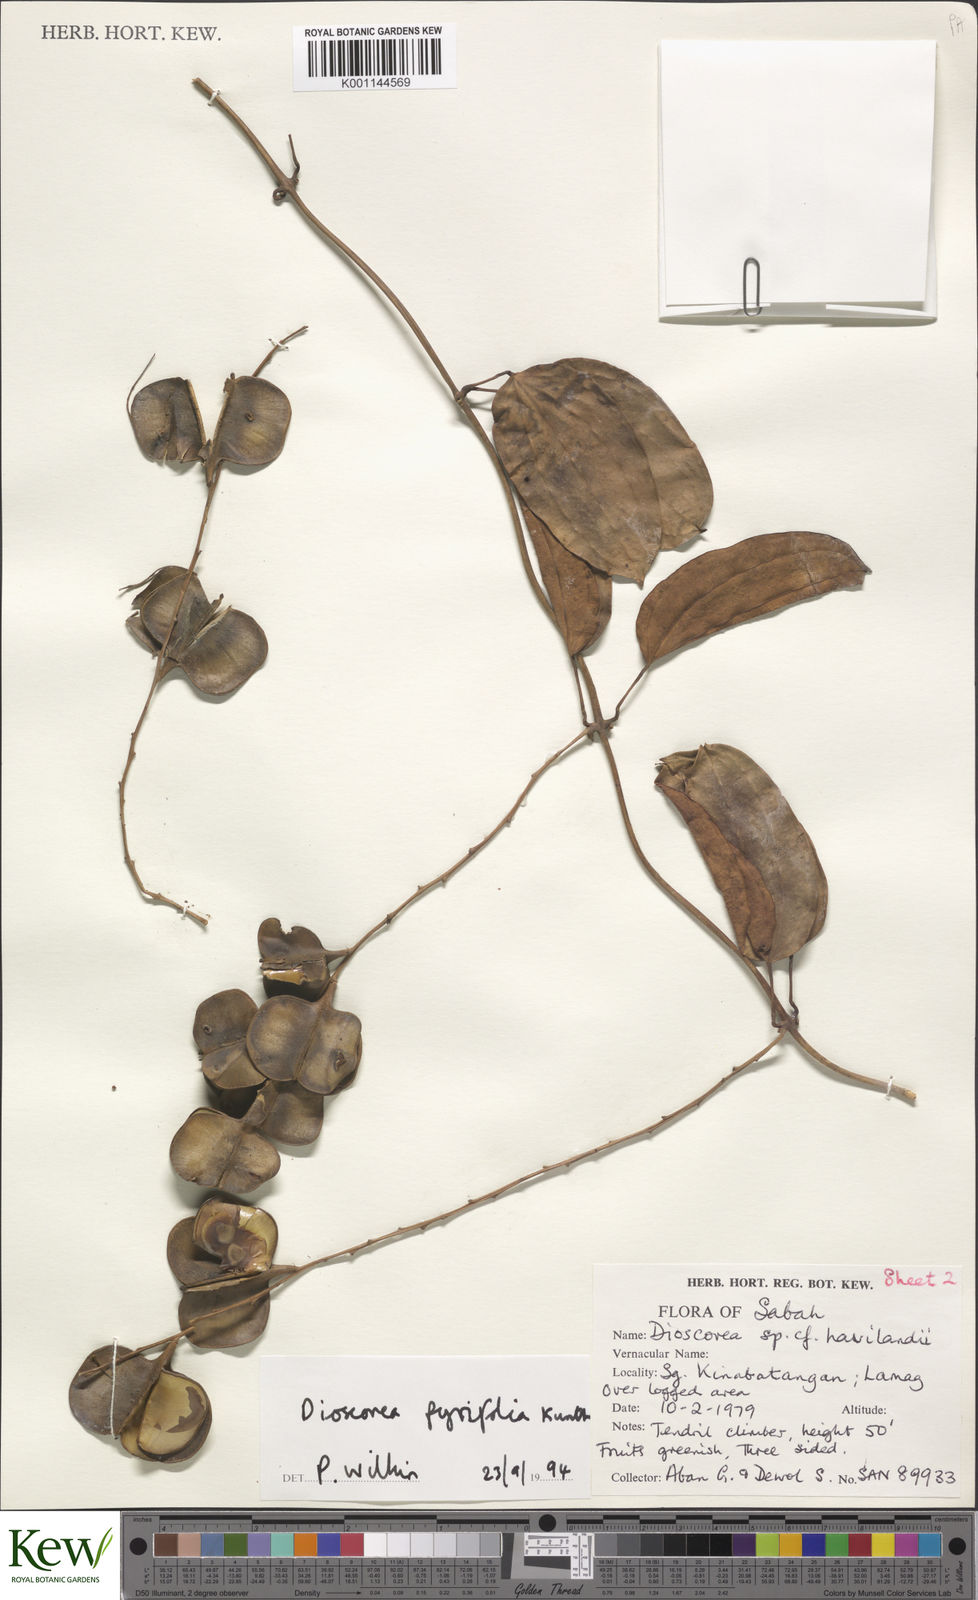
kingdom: Plantae
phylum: Tracheophyta
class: Liliopsida
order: Dioscoreales
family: Dioscoreaceae
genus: Dioscorea
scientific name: Dioscorea pyrifolia
